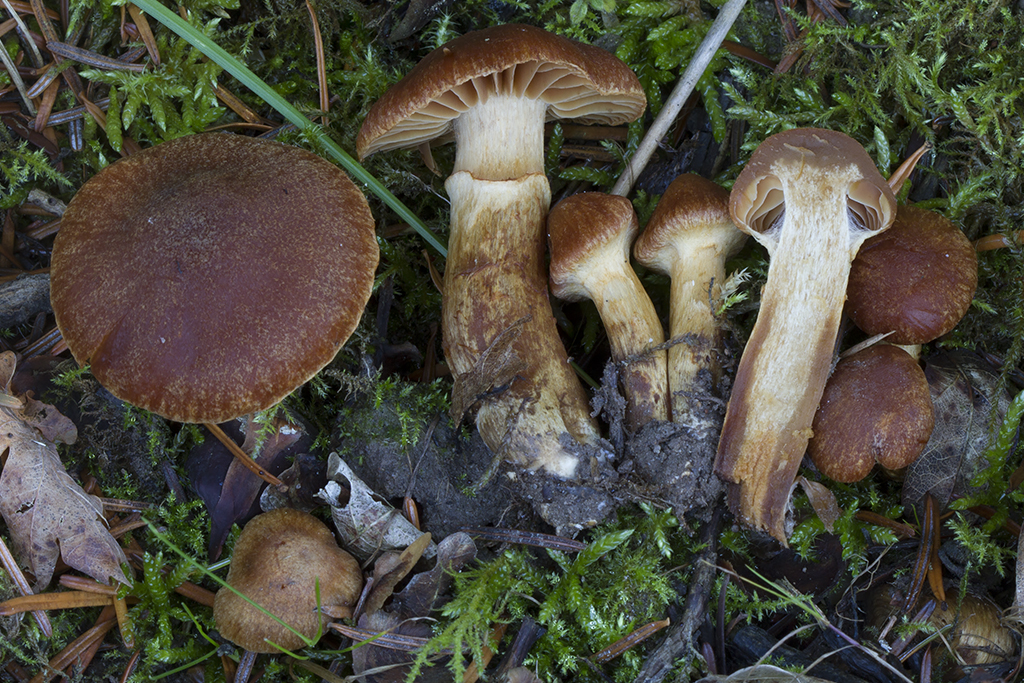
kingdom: Fungi
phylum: Basidiomycota
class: Agaricomycetes
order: Agaricales
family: Cortinariaceae
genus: Cortinarius
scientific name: Cortinarius radicosissimus
